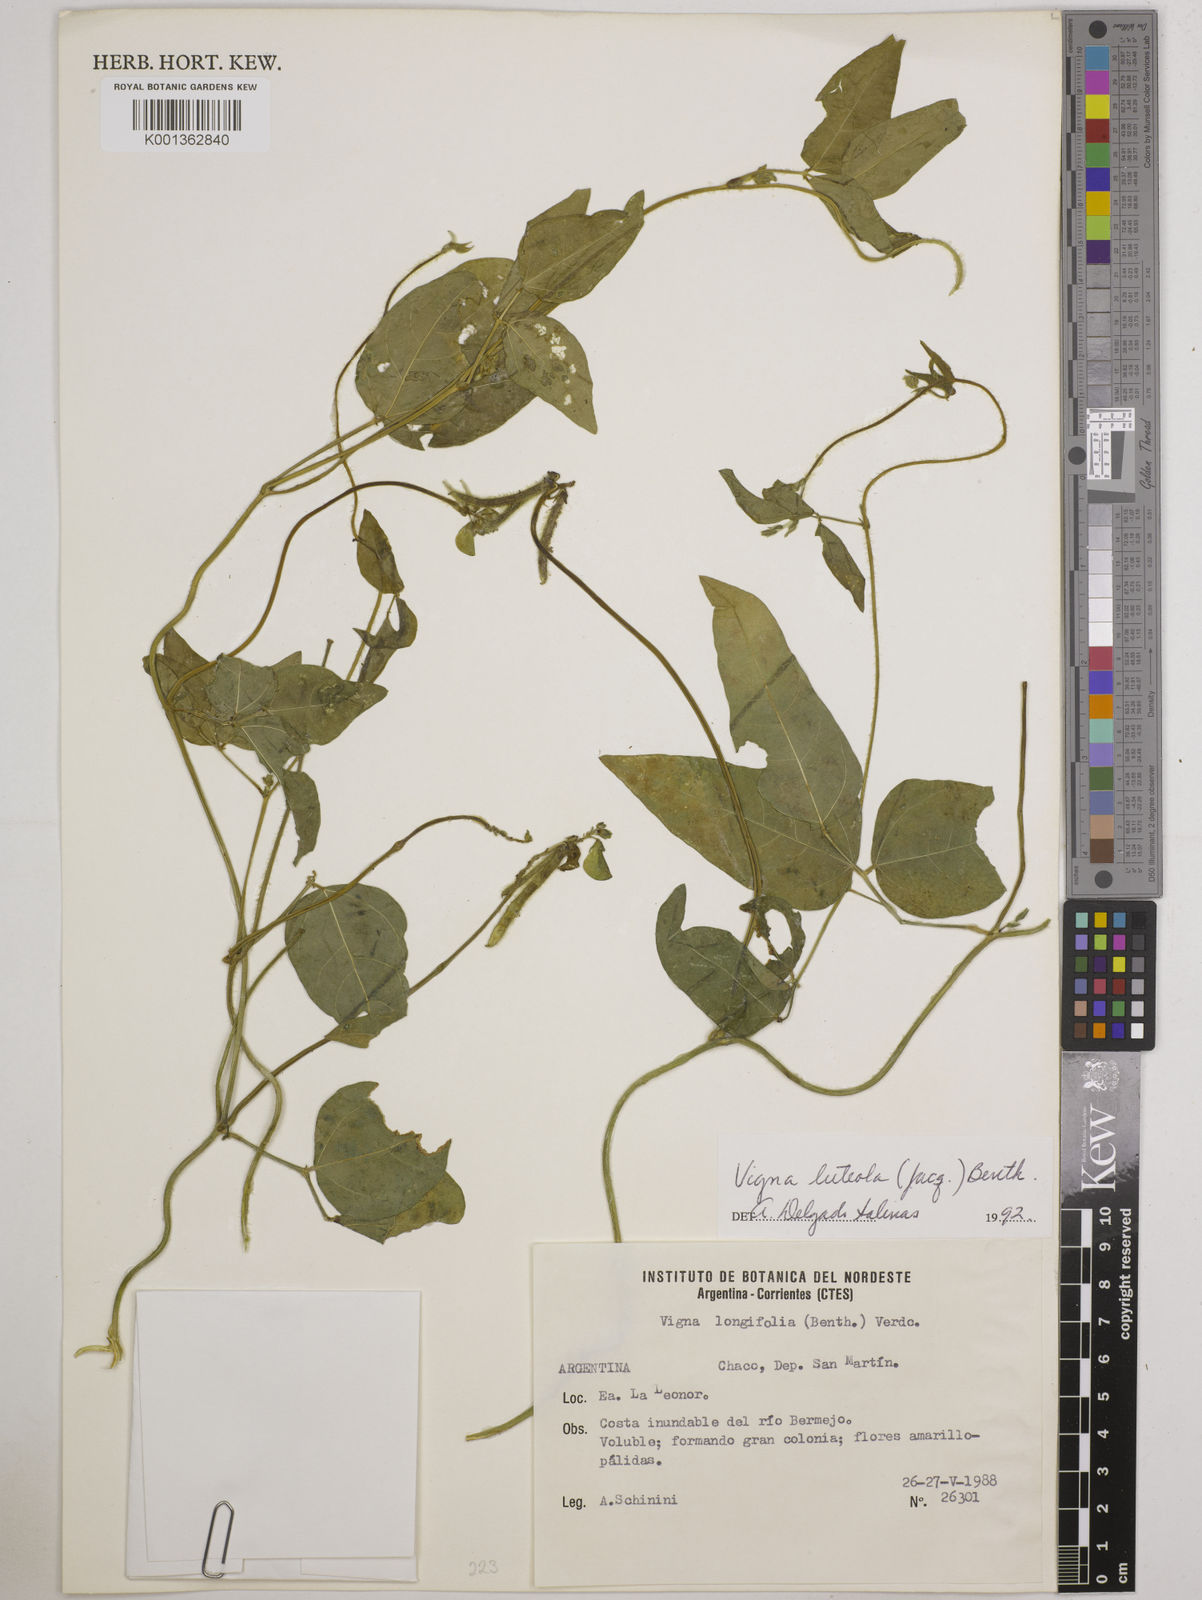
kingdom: Plantae
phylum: Tracheophyta
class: Magnoliopsida
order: Fabales
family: Fabaceae
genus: Vigna
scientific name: Vigna luteola
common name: Hairypod cowpea
